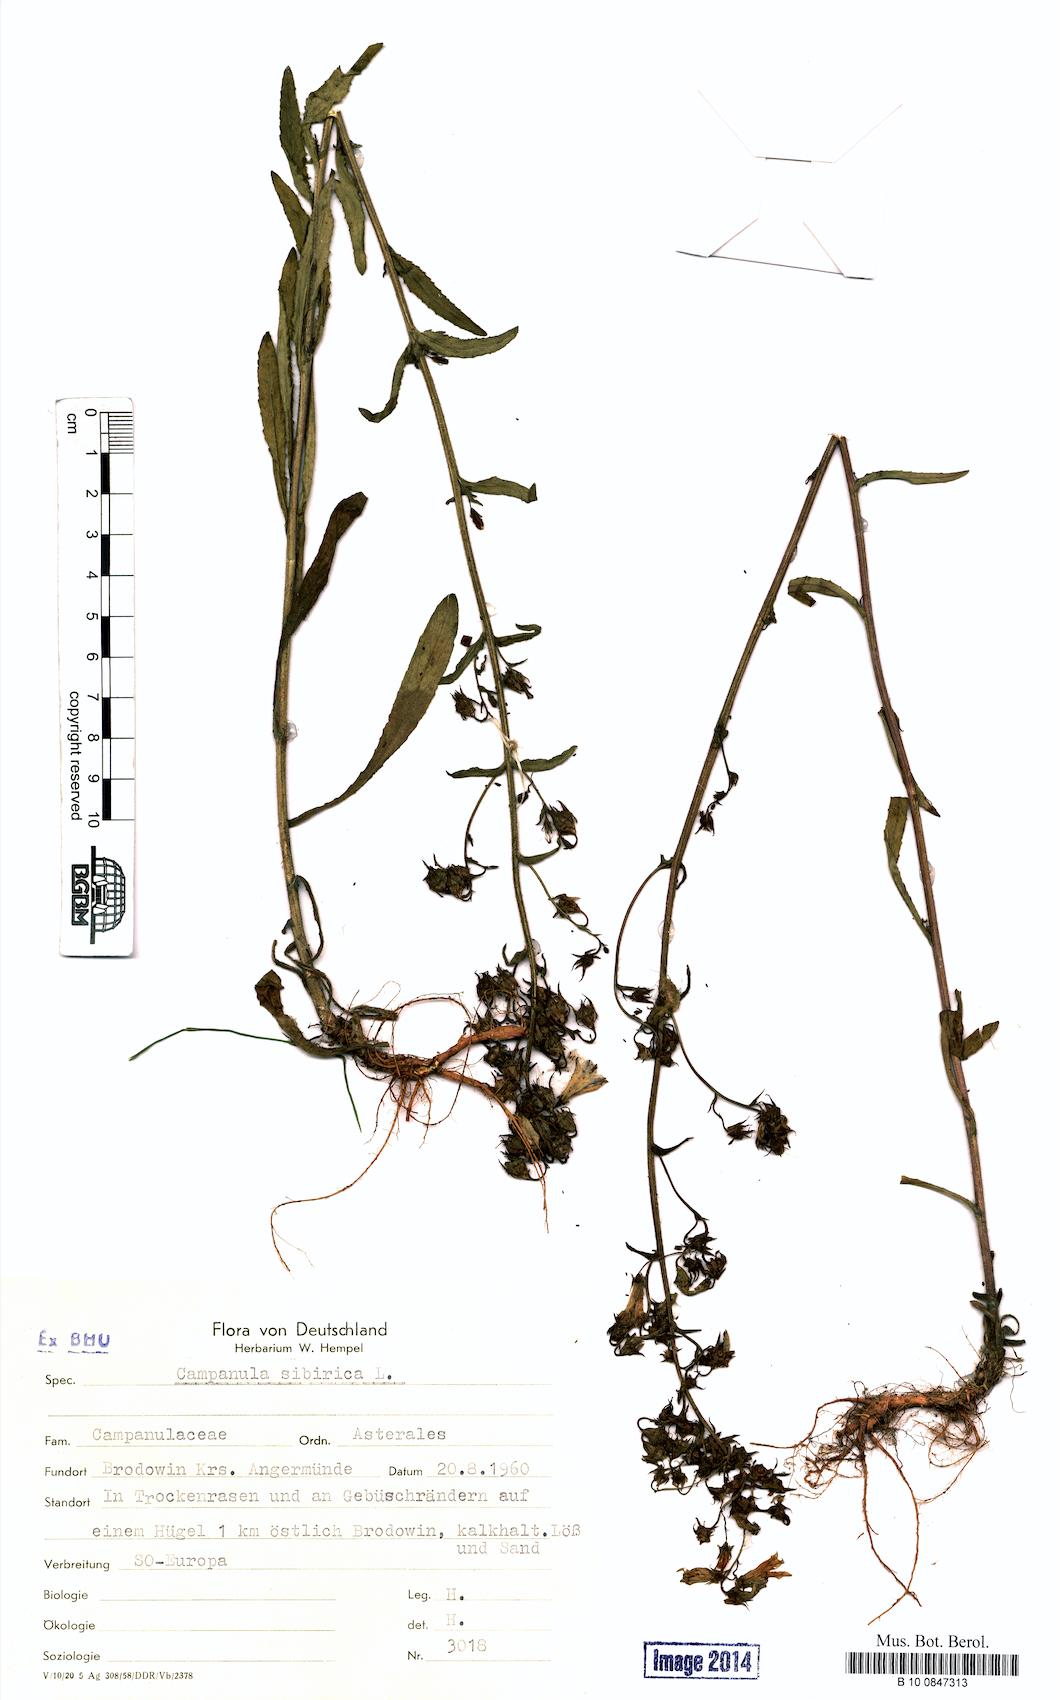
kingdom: Plantae
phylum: Tracheophyta
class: Magnoliopsida
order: Asterales
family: Campanulaceae
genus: Campanula
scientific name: Campanula sibirica
